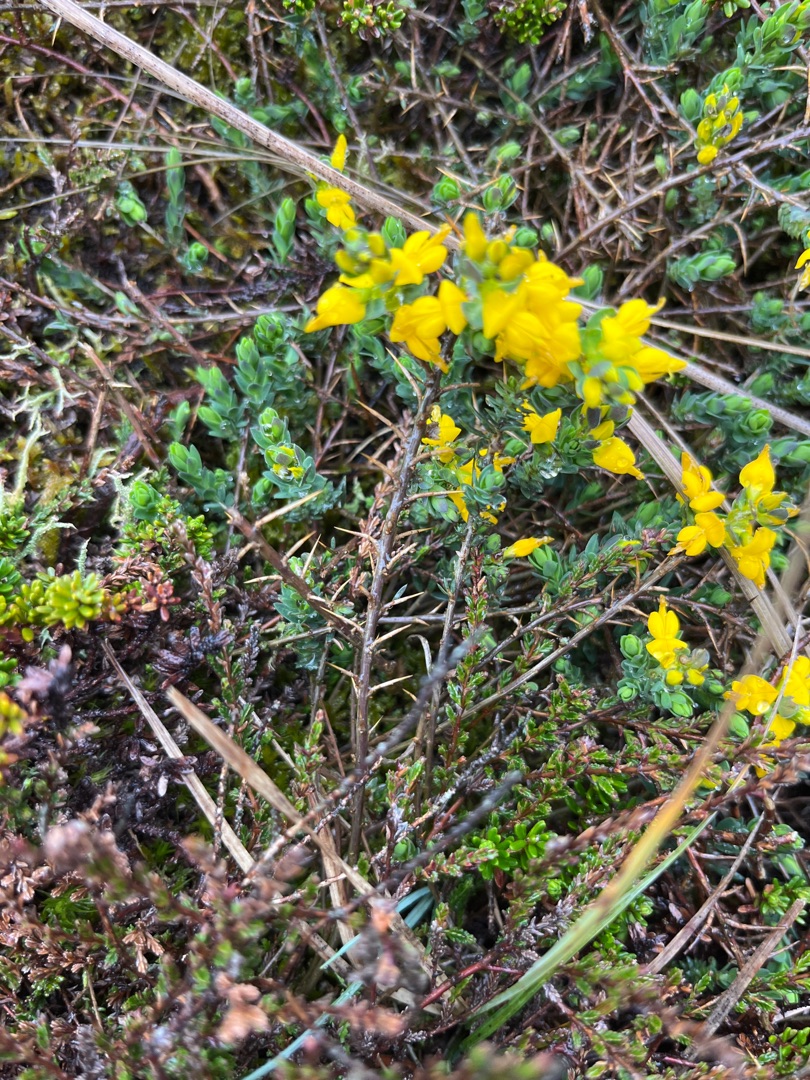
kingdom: Plantae
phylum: Tracheophyta
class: Magnoliopsida
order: Fabales
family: Fabaceae
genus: Genista
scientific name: Genista anglica
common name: Engelsk visse
